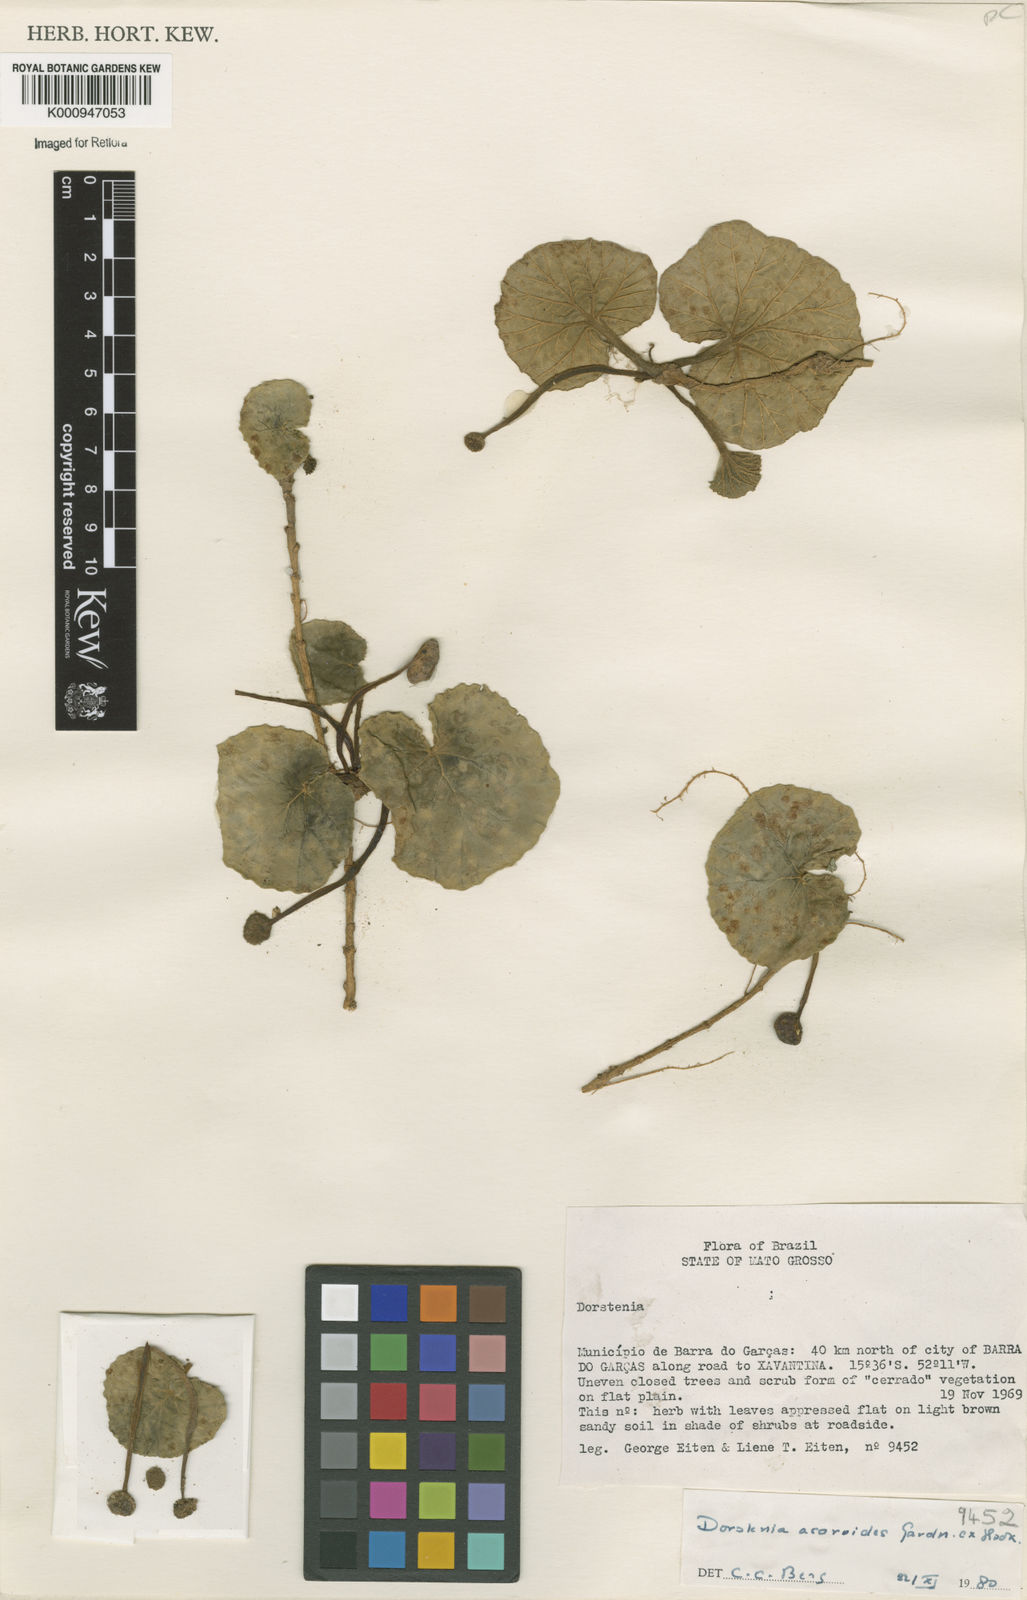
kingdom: Plantae
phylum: Tracheophyta
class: Magnoliopsida
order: Rosales
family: Moraceae
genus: Dorstenia
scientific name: Dorstenia
